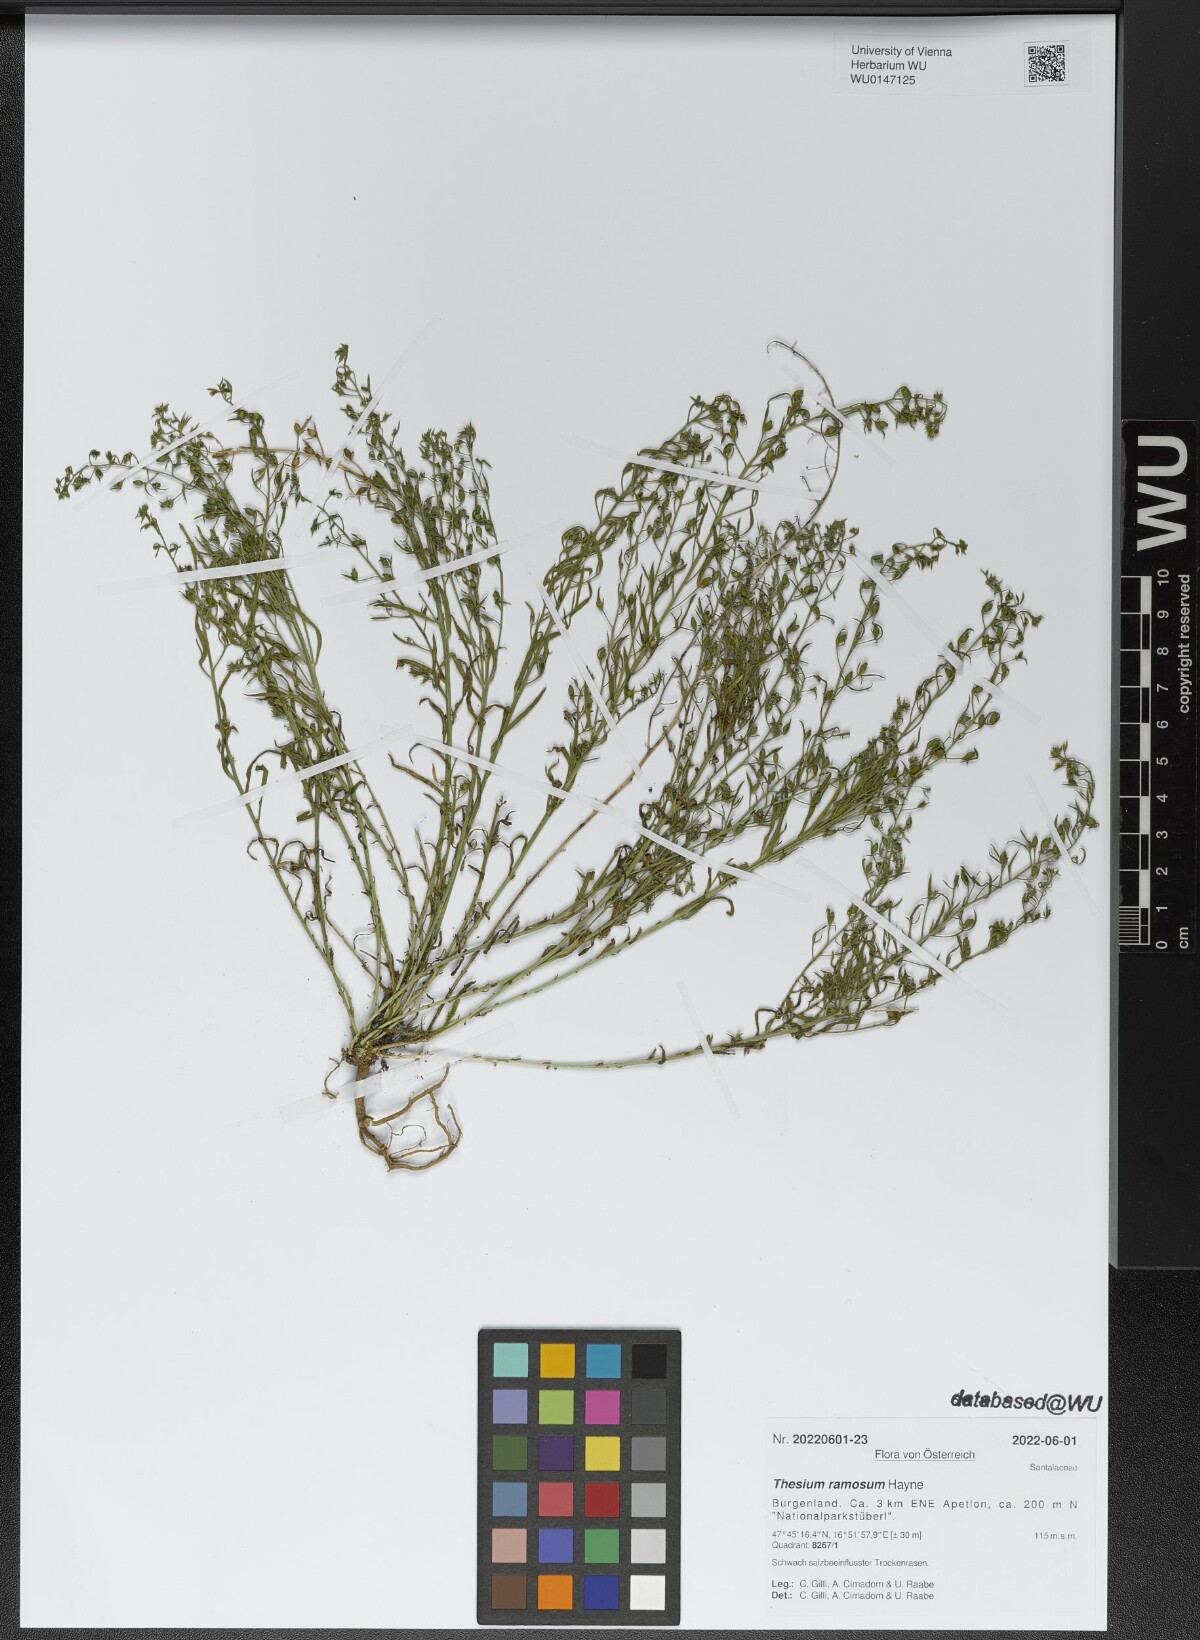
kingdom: Plantae
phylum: Tracheophyta
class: Magnoliopsida
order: Santalales
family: Thesiaceae
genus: Thesium
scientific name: Thesium ramosum
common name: Field thesium
